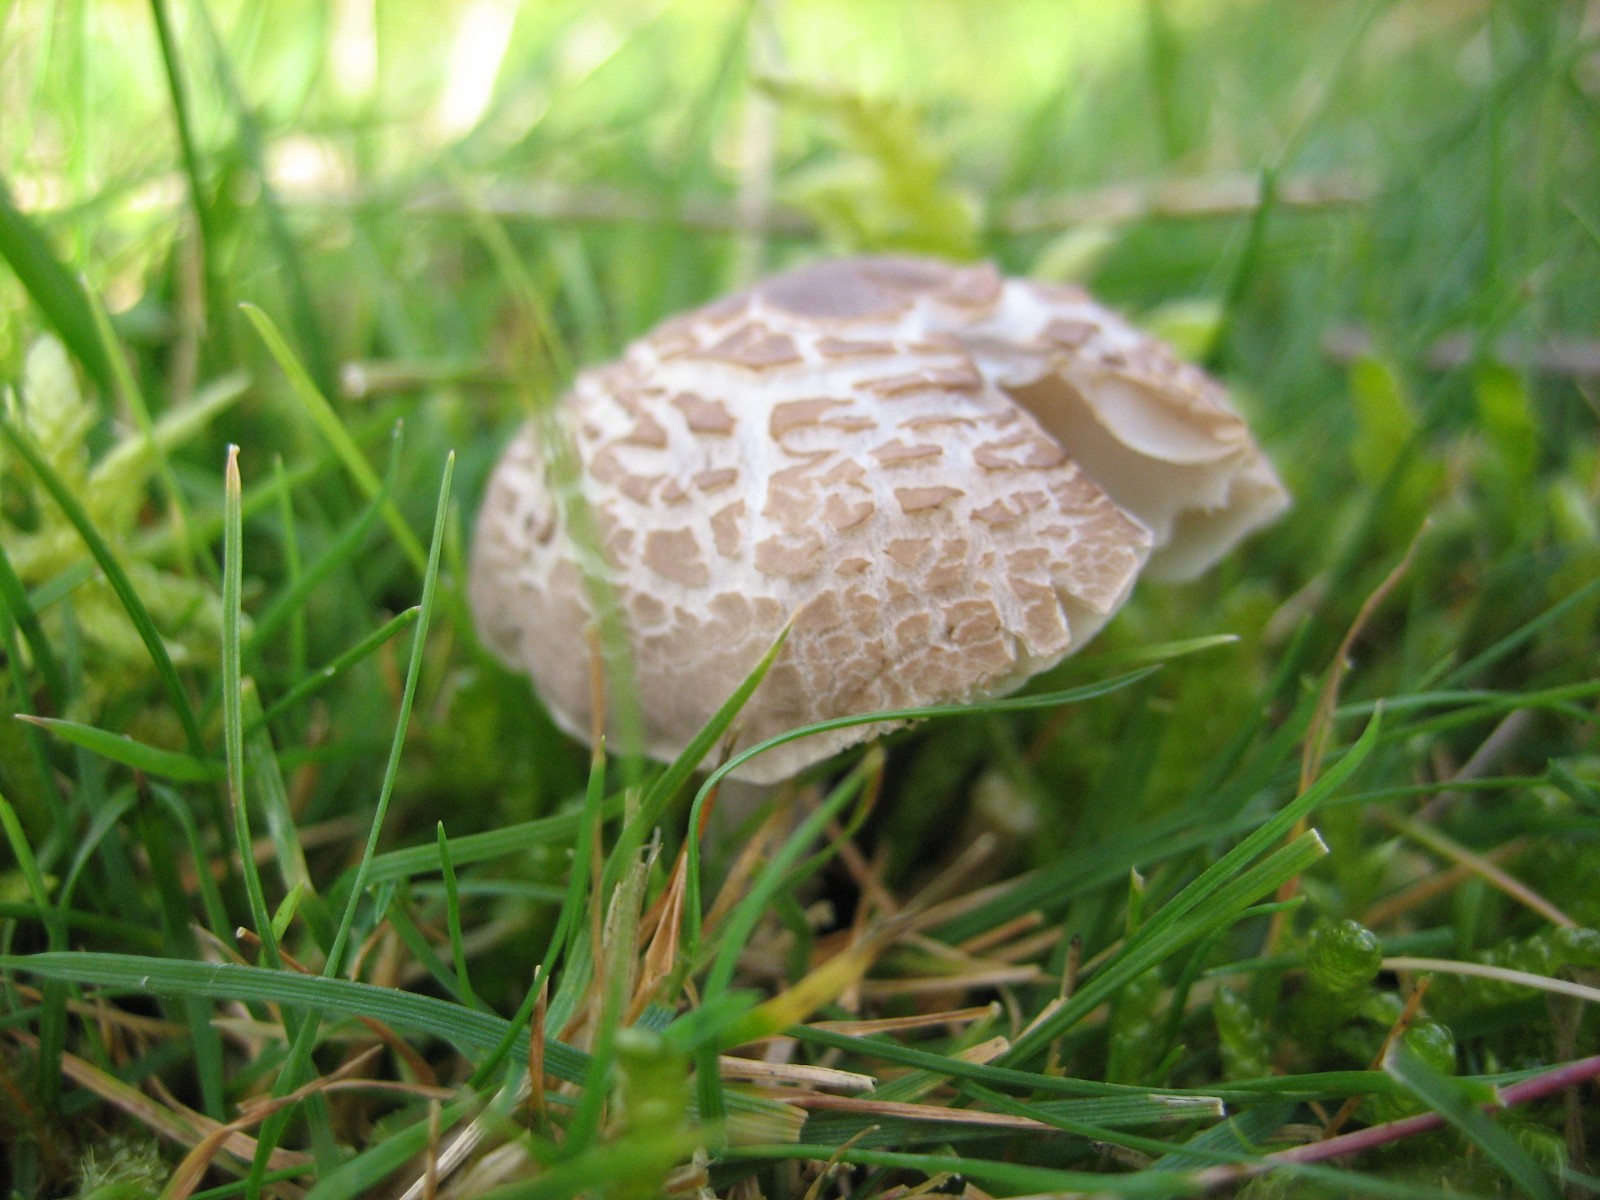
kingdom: Fungi
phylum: Basidiomycota
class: Agaricomycetes
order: Agaricales
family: Tricholomataceae
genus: Dermoloma
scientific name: Dermoloma cuneifolium
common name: eng-nonnehat
